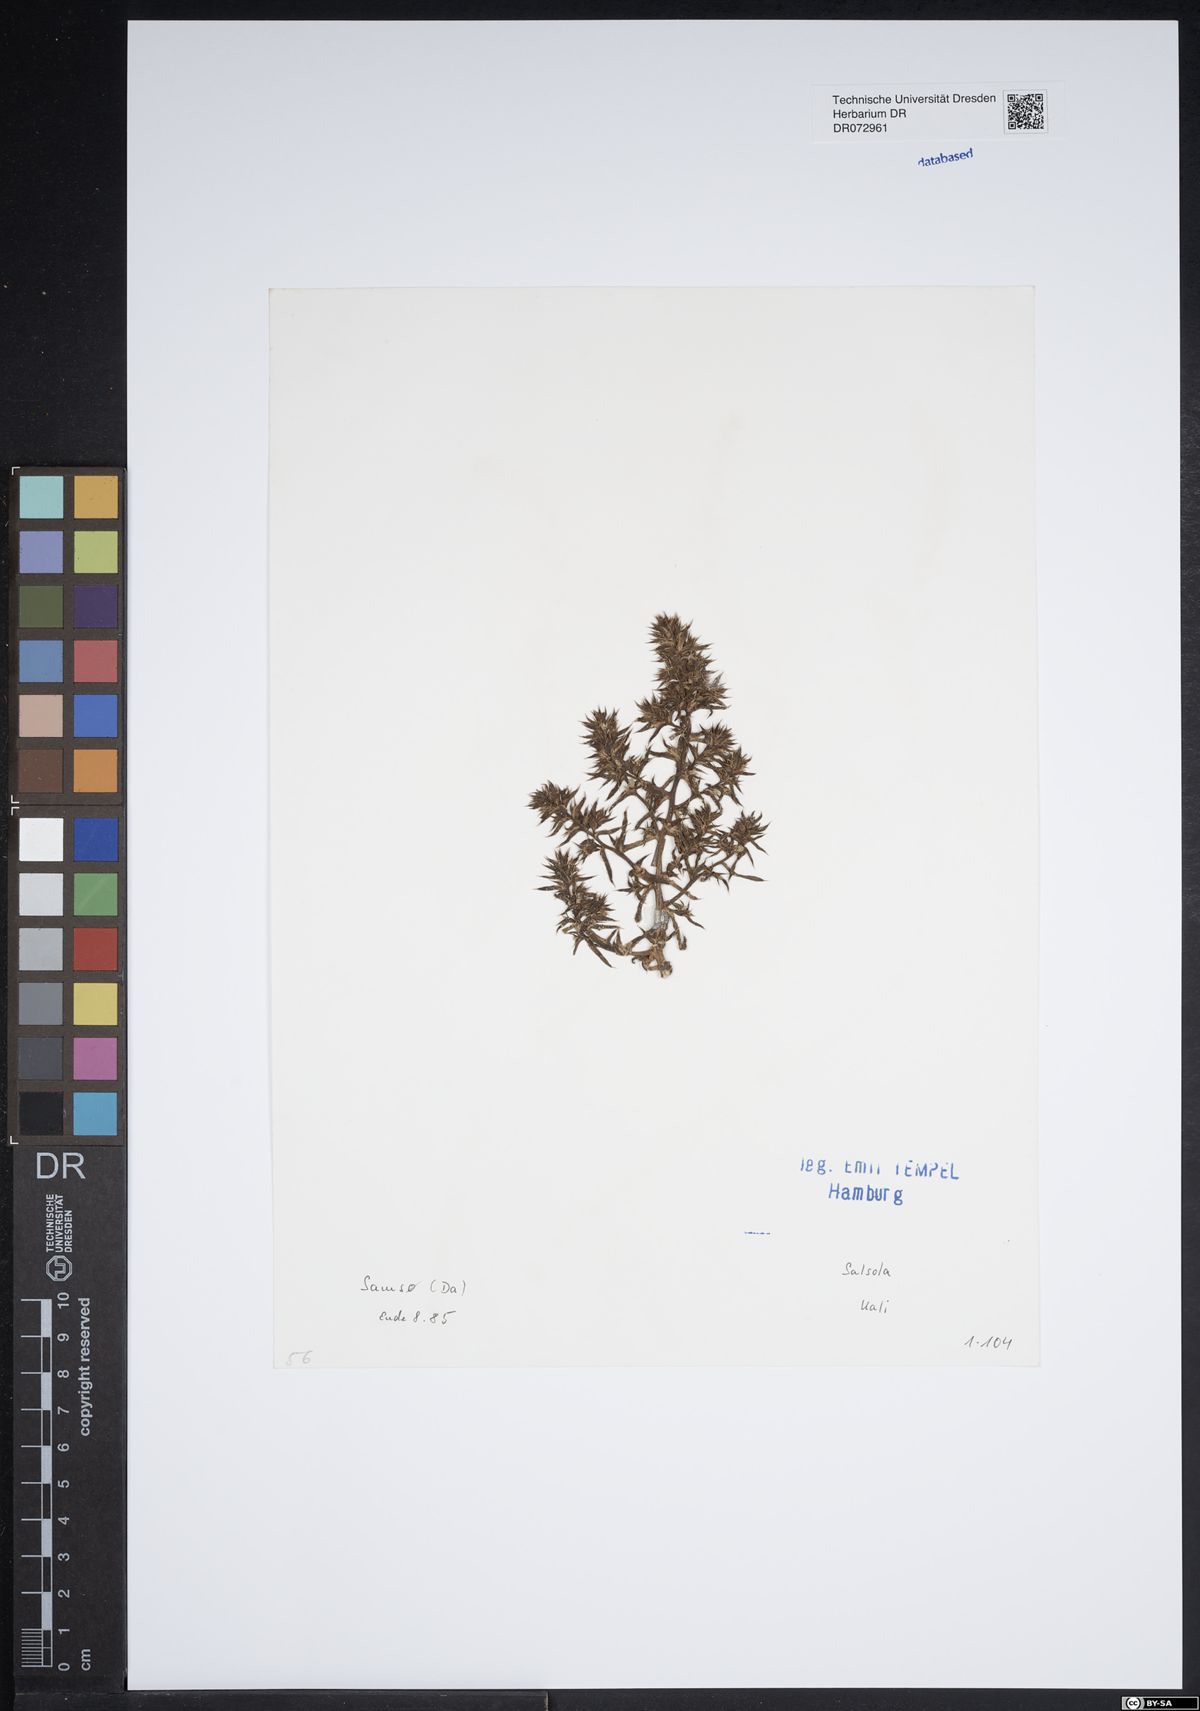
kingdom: Plantae
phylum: Tracheophyta
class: Magnoliopsida
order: Caryophyllales
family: Amaranthaceae
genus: Salsola
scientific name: Salsola kali
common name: Saltwort
